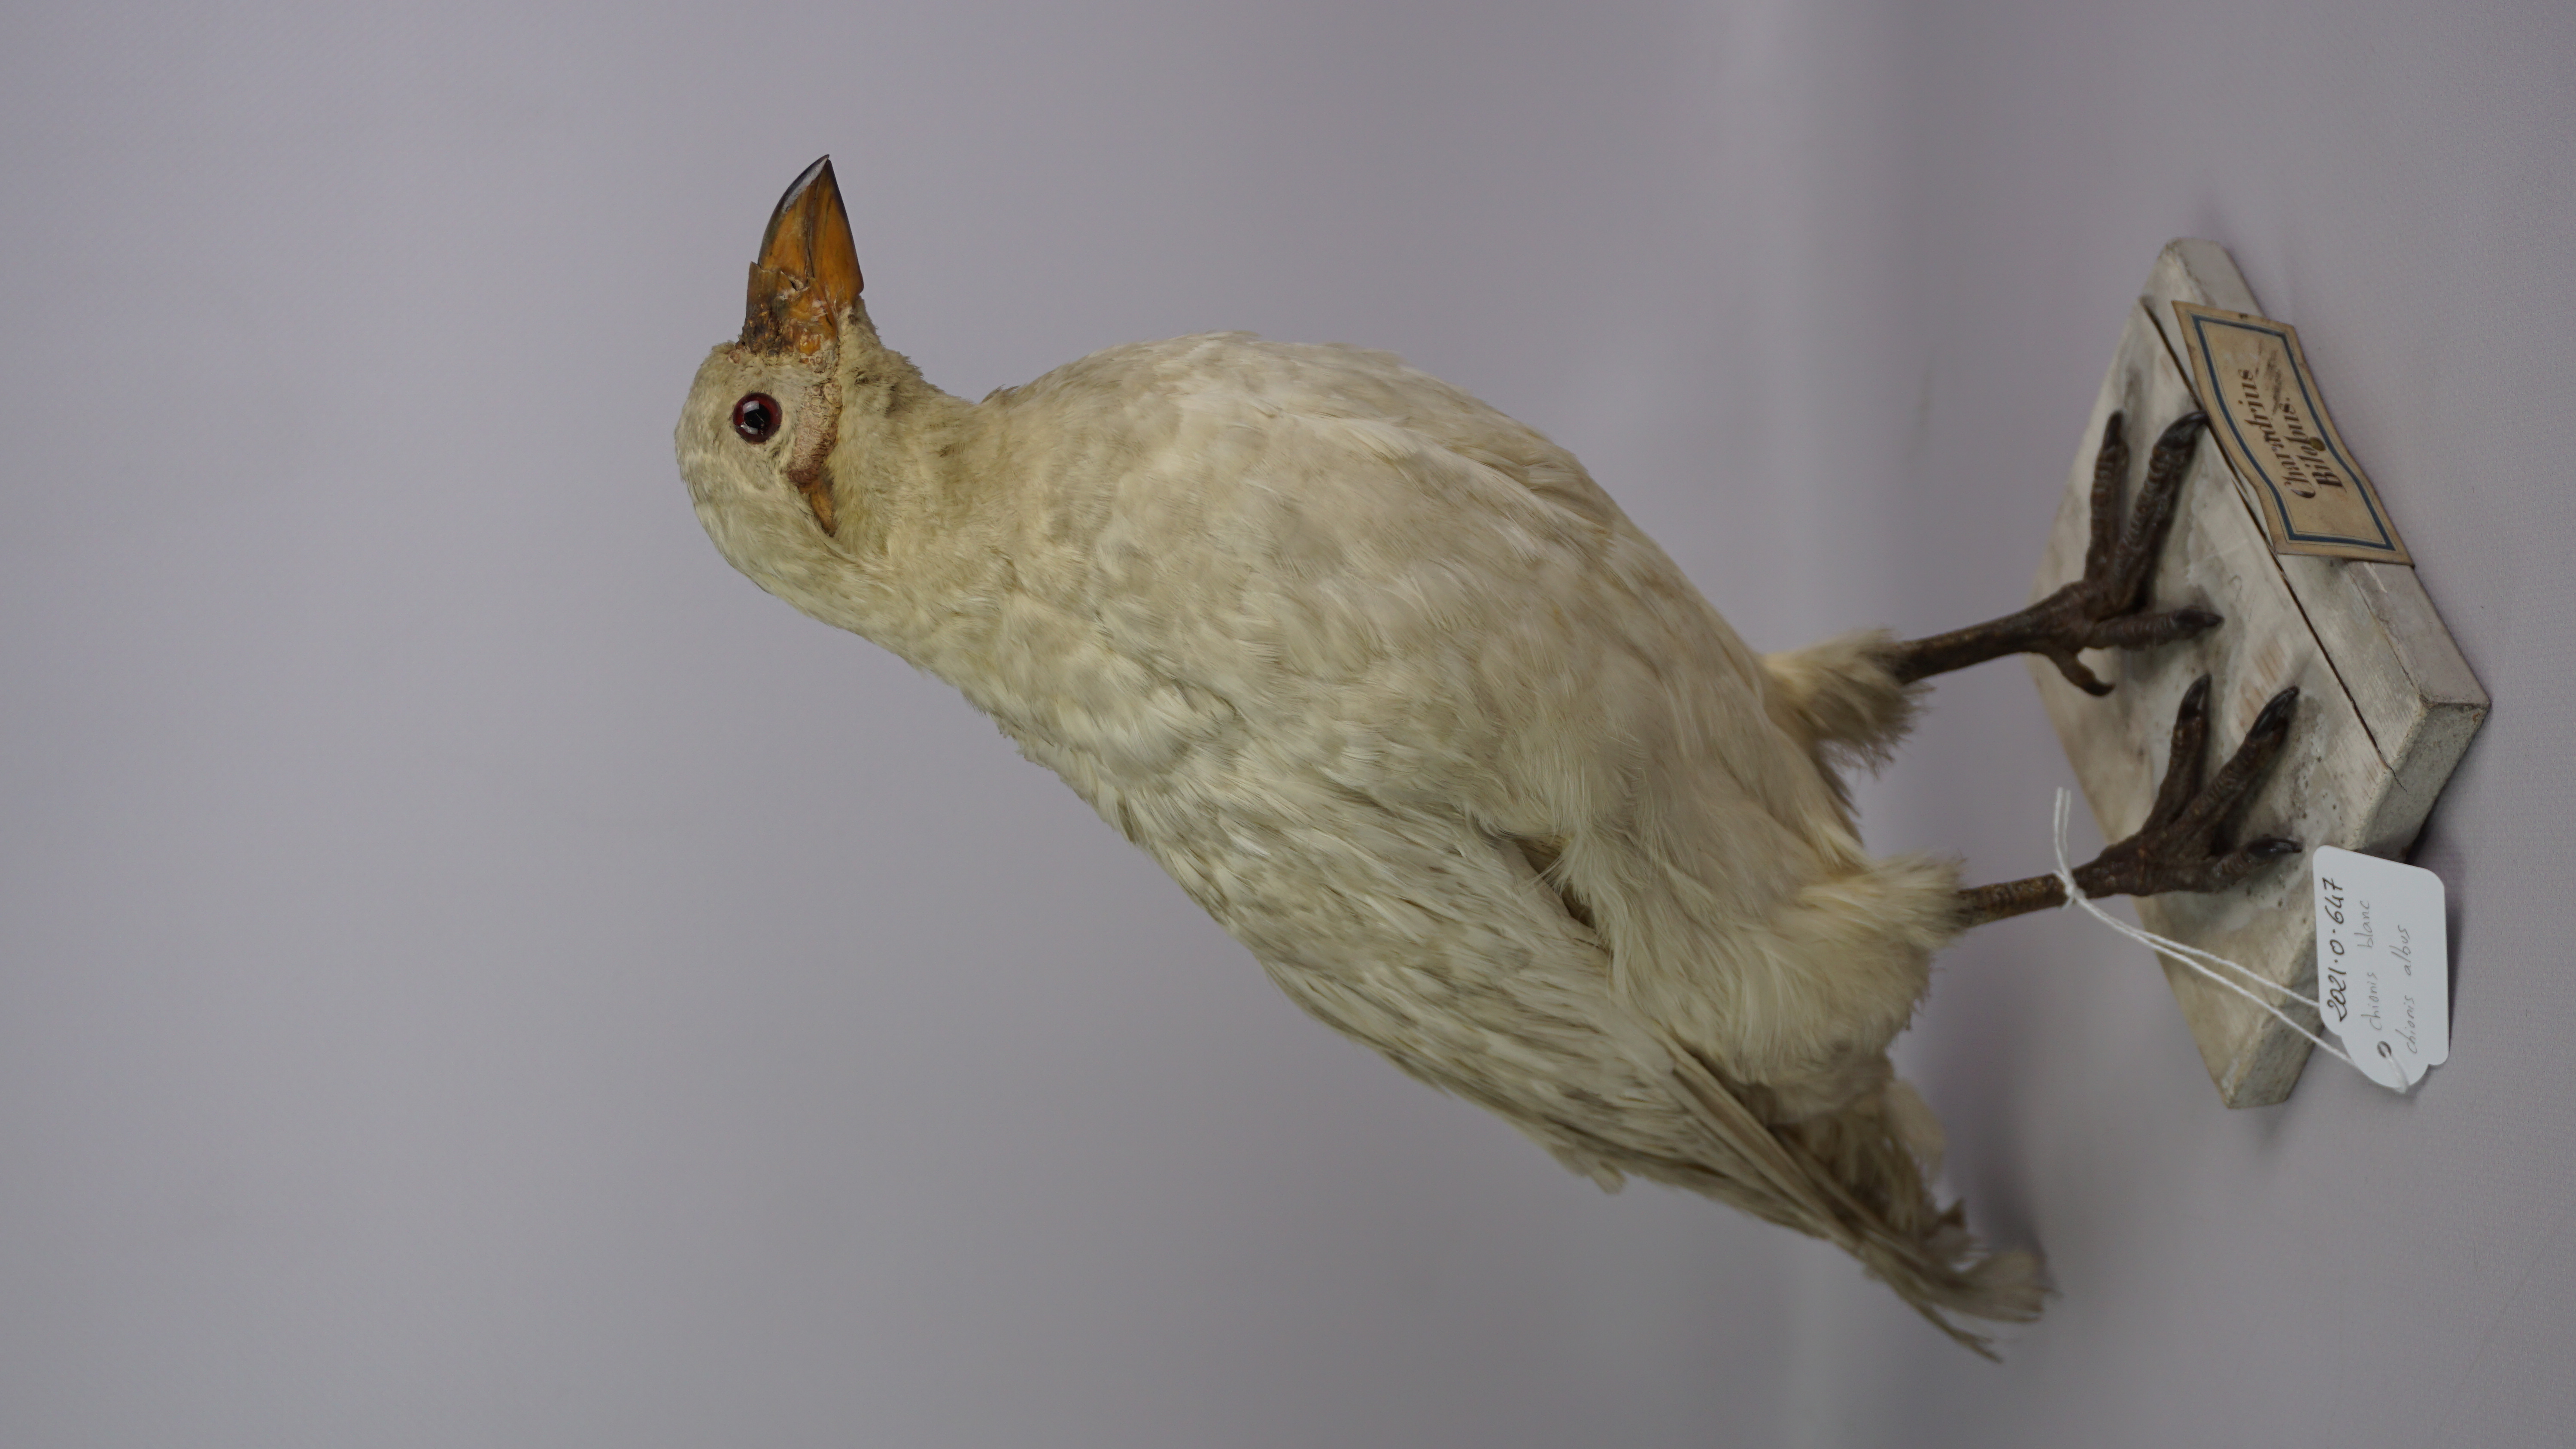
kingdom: Animalia
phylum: Chordata
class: Aves
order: Charadriiformes
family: Chionidae
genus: Chionis
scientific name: Chionis albus
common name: Snowy sheathbill
